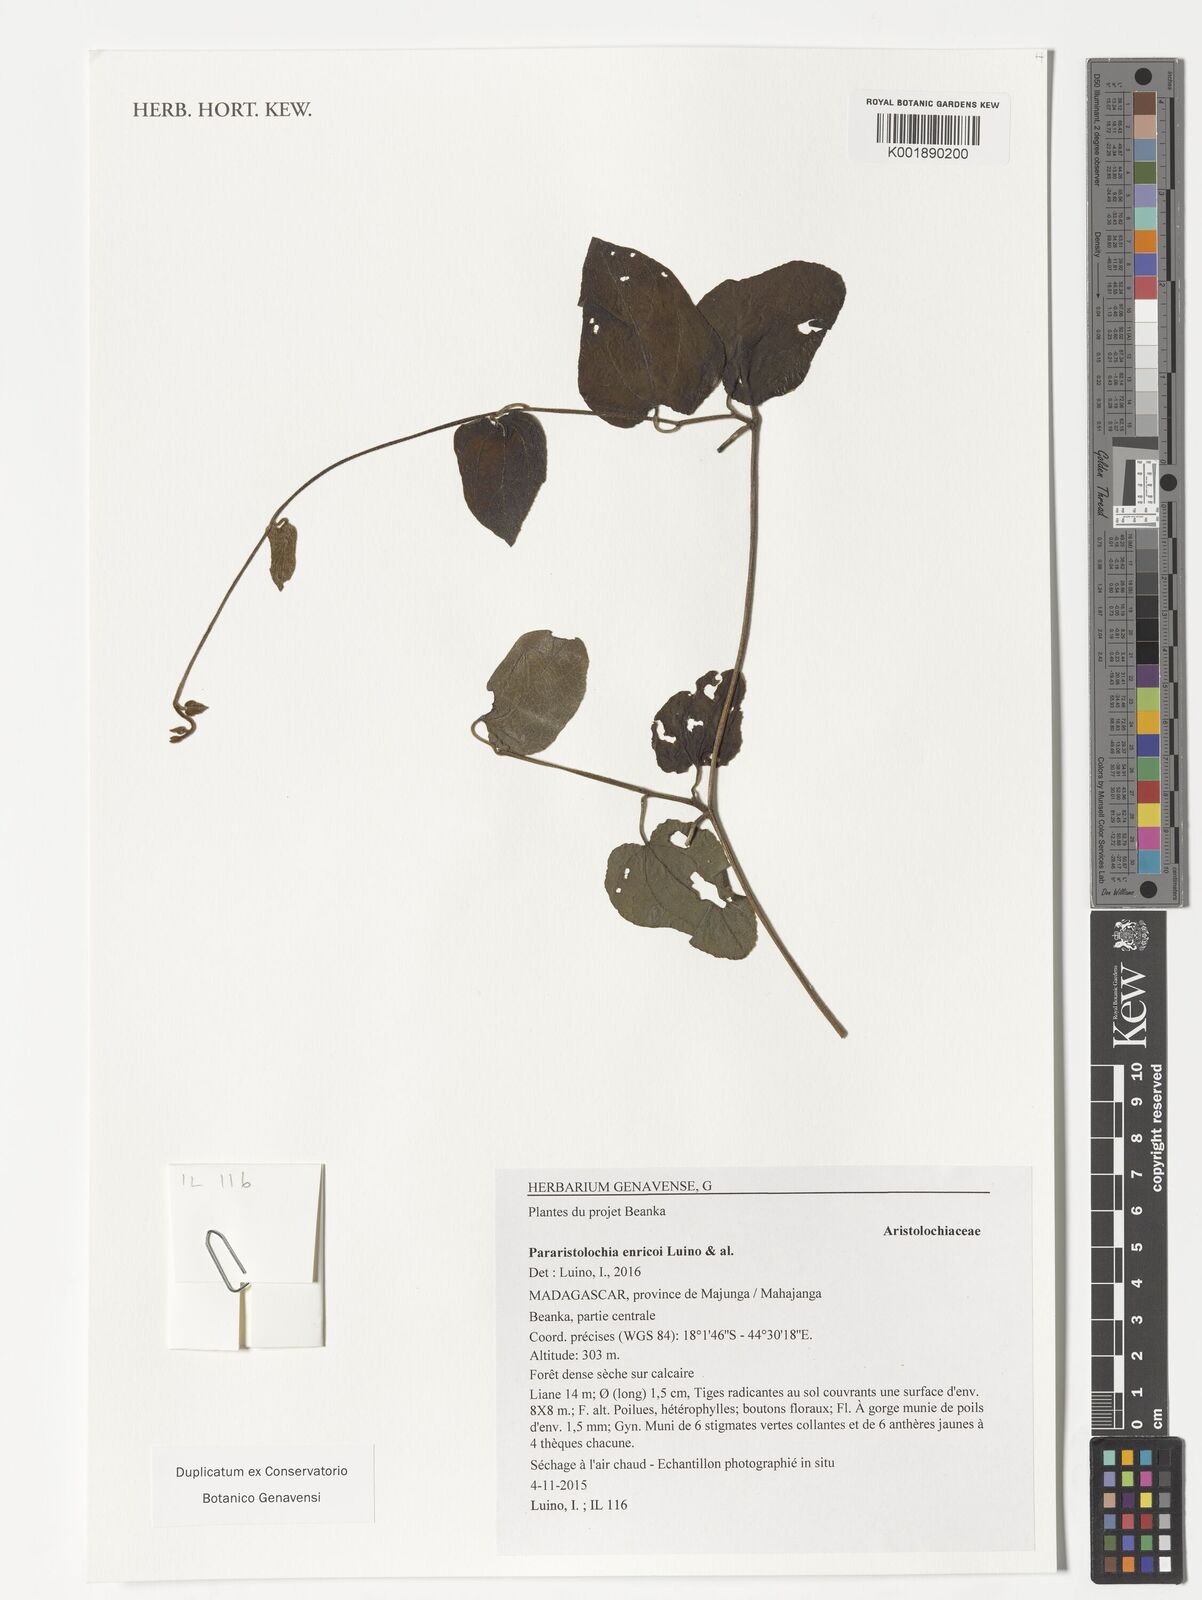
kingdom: Plantae
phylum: Tracheophyta
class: Magnoliopsida
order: Piperales
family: Aristolochiaceae
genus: Aristolochia
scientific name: Aristolochia enricoi
